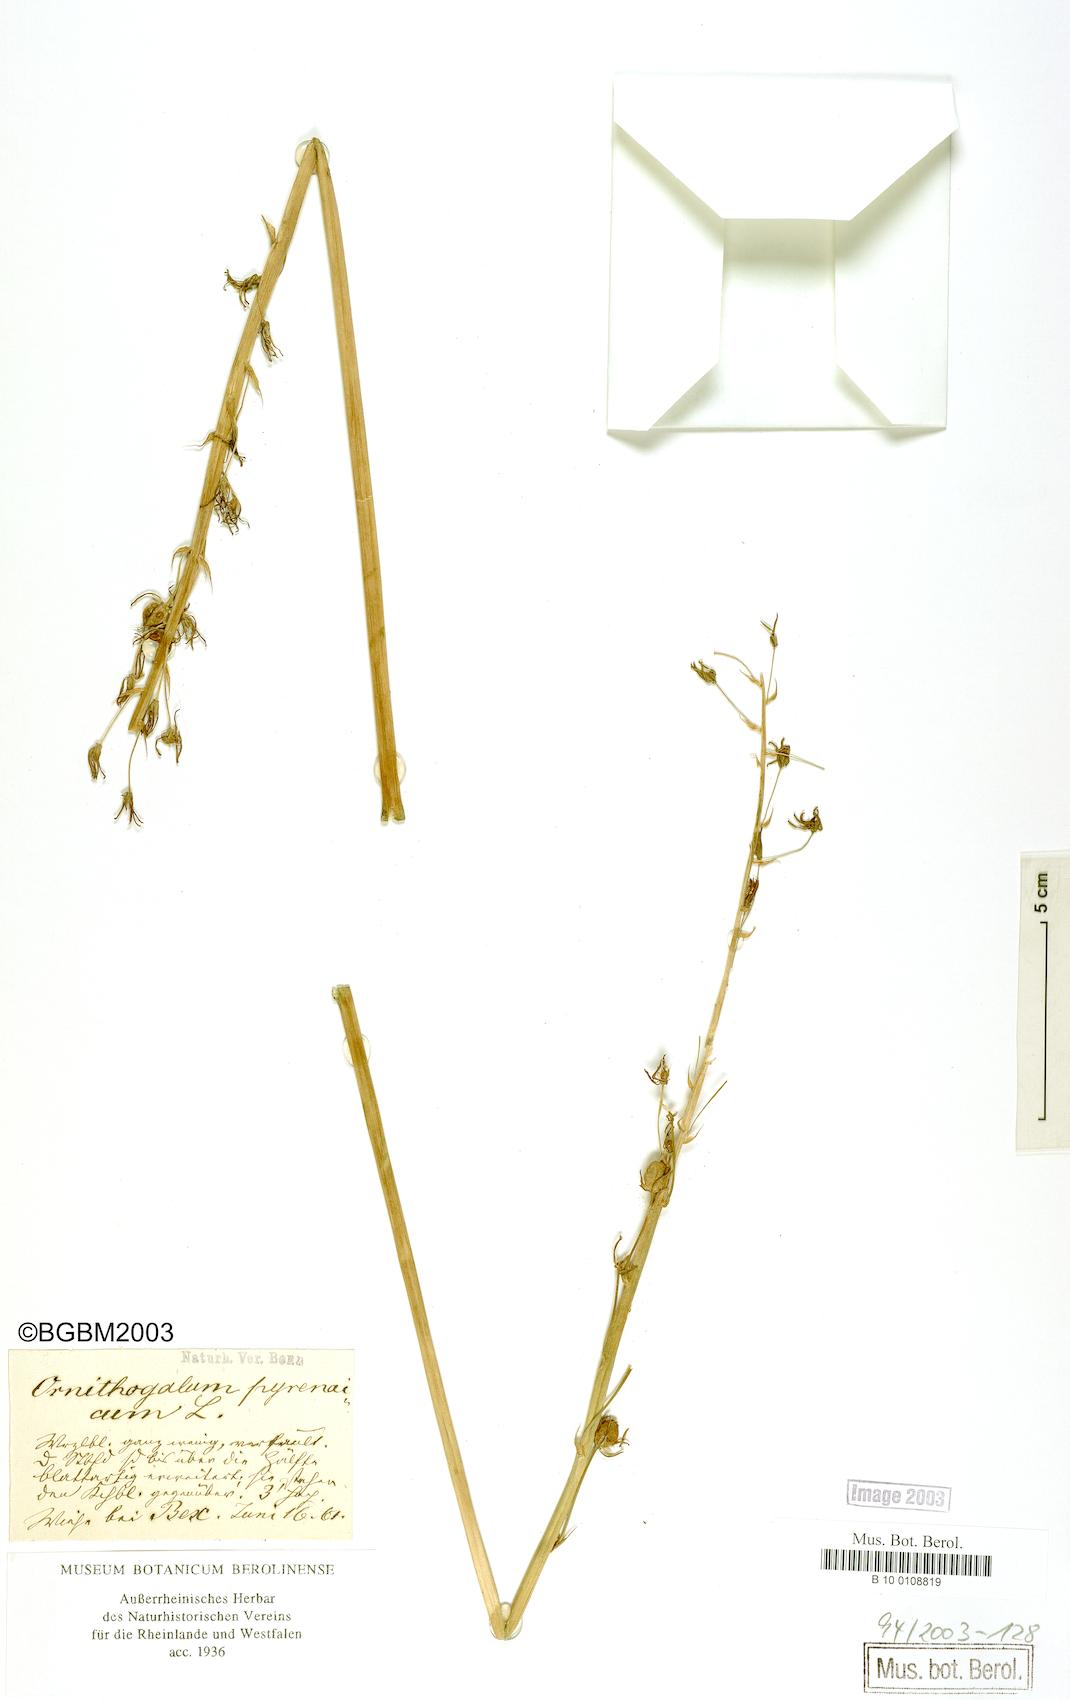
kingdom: Plantae
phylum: Tracheophyta
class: Liliopsida
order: Asparagales
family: Asparagaceae
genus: Ornithogalum
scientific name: Ornithogalum pyrenaicum
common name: Spiked star-of-bethlehem
